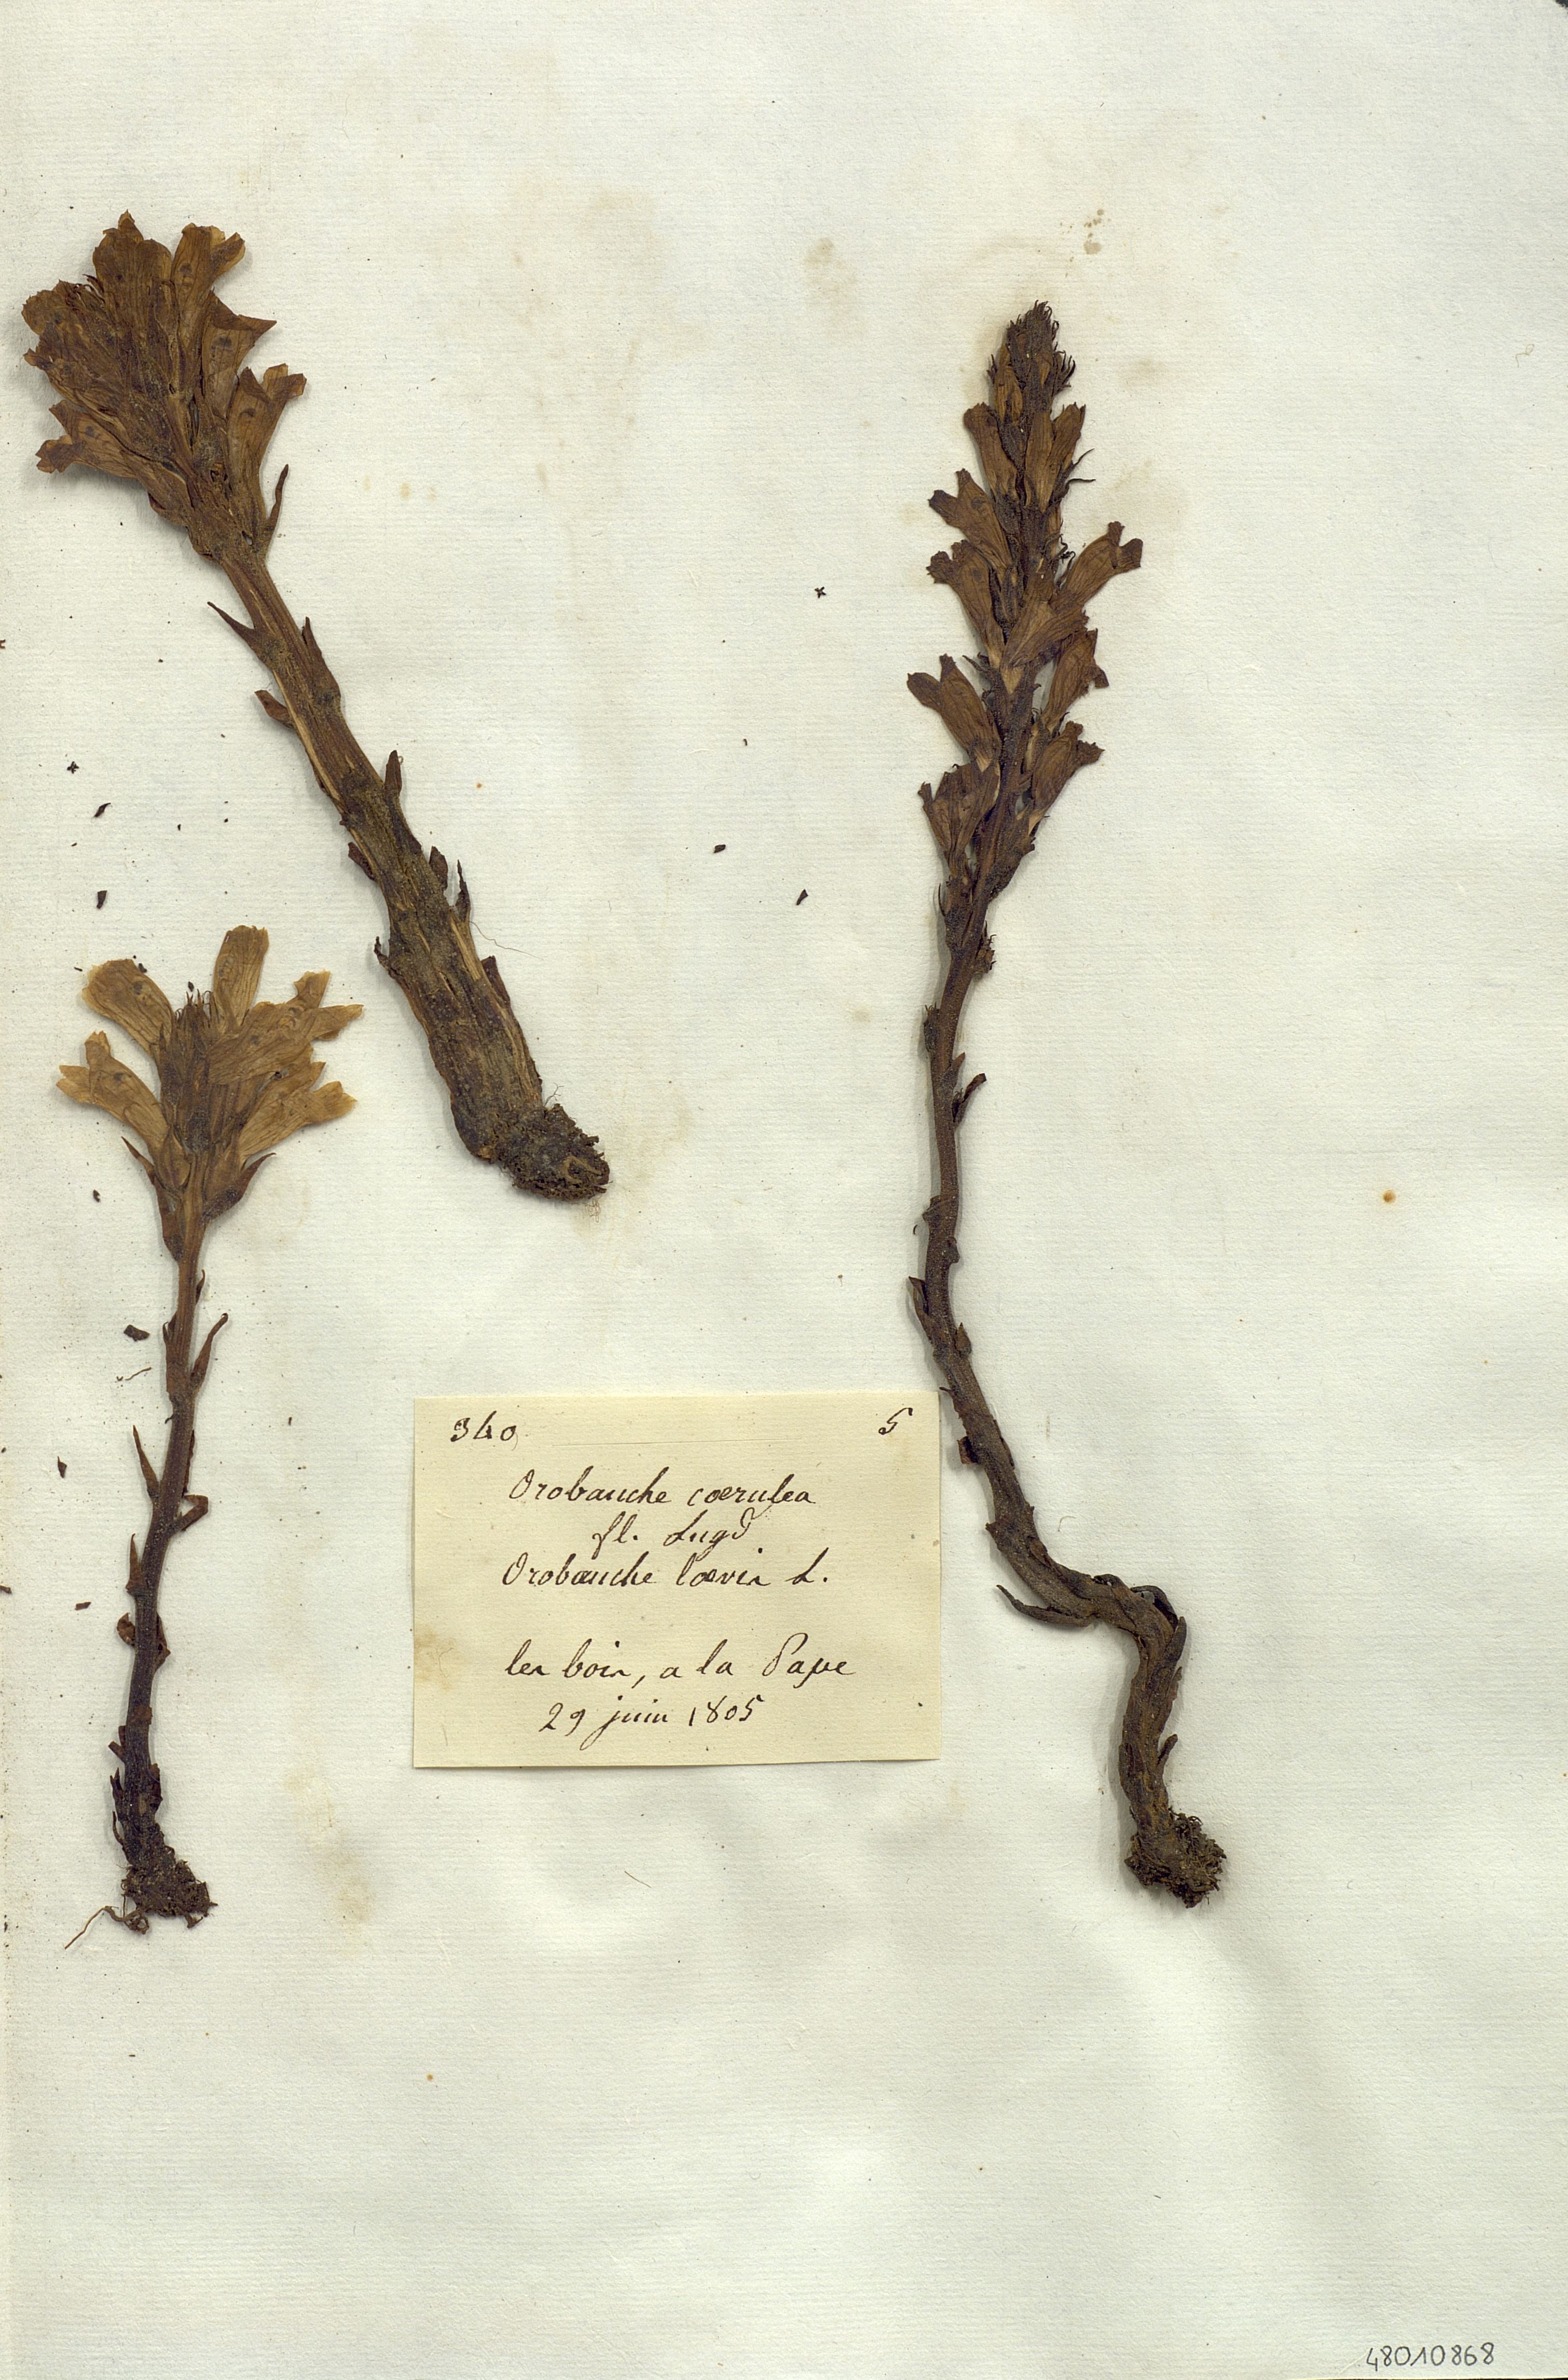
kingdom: Plantae
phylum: Tracheophyta
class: Magnoliopsida
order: Lamiales
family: Orobanchaceae
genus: Phelipanche
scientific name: Phelipanche purpurea
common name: Purple broomrape
